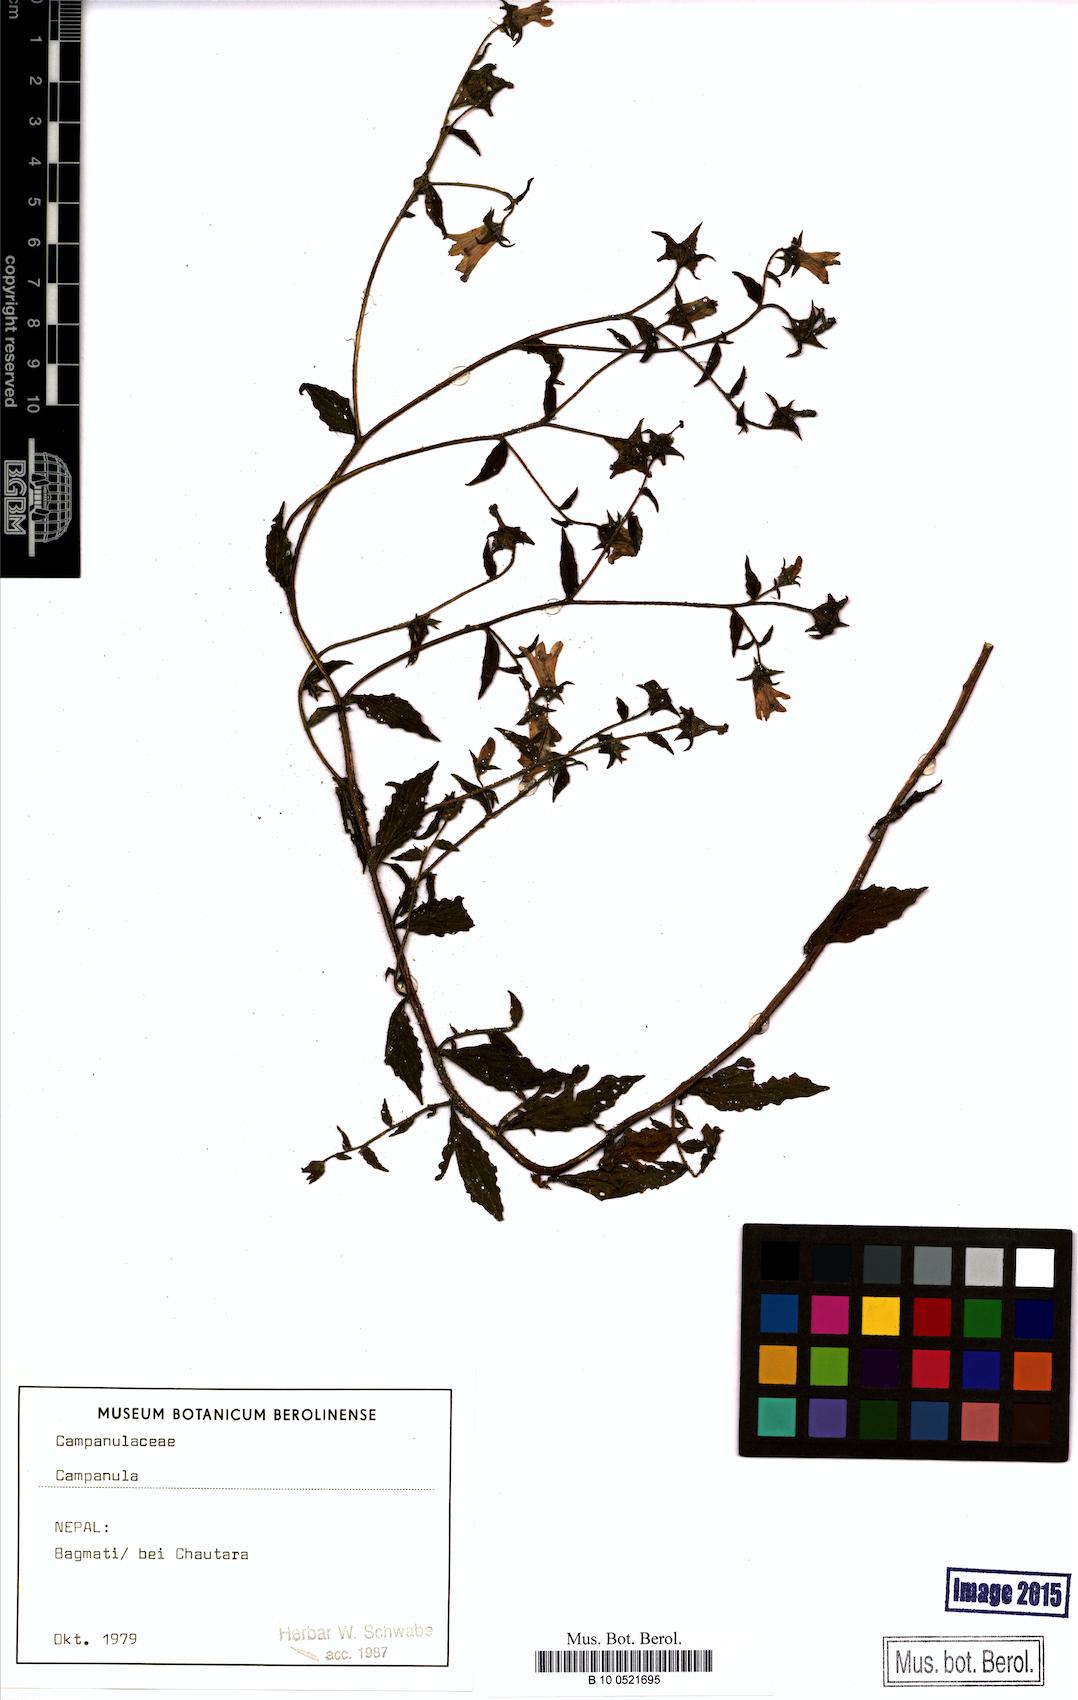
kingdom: Plantae
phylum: Tracheophyta
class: Magnoliopsida
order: Asterales
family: Campanulaceae
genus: Campanula
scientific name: Campanula
